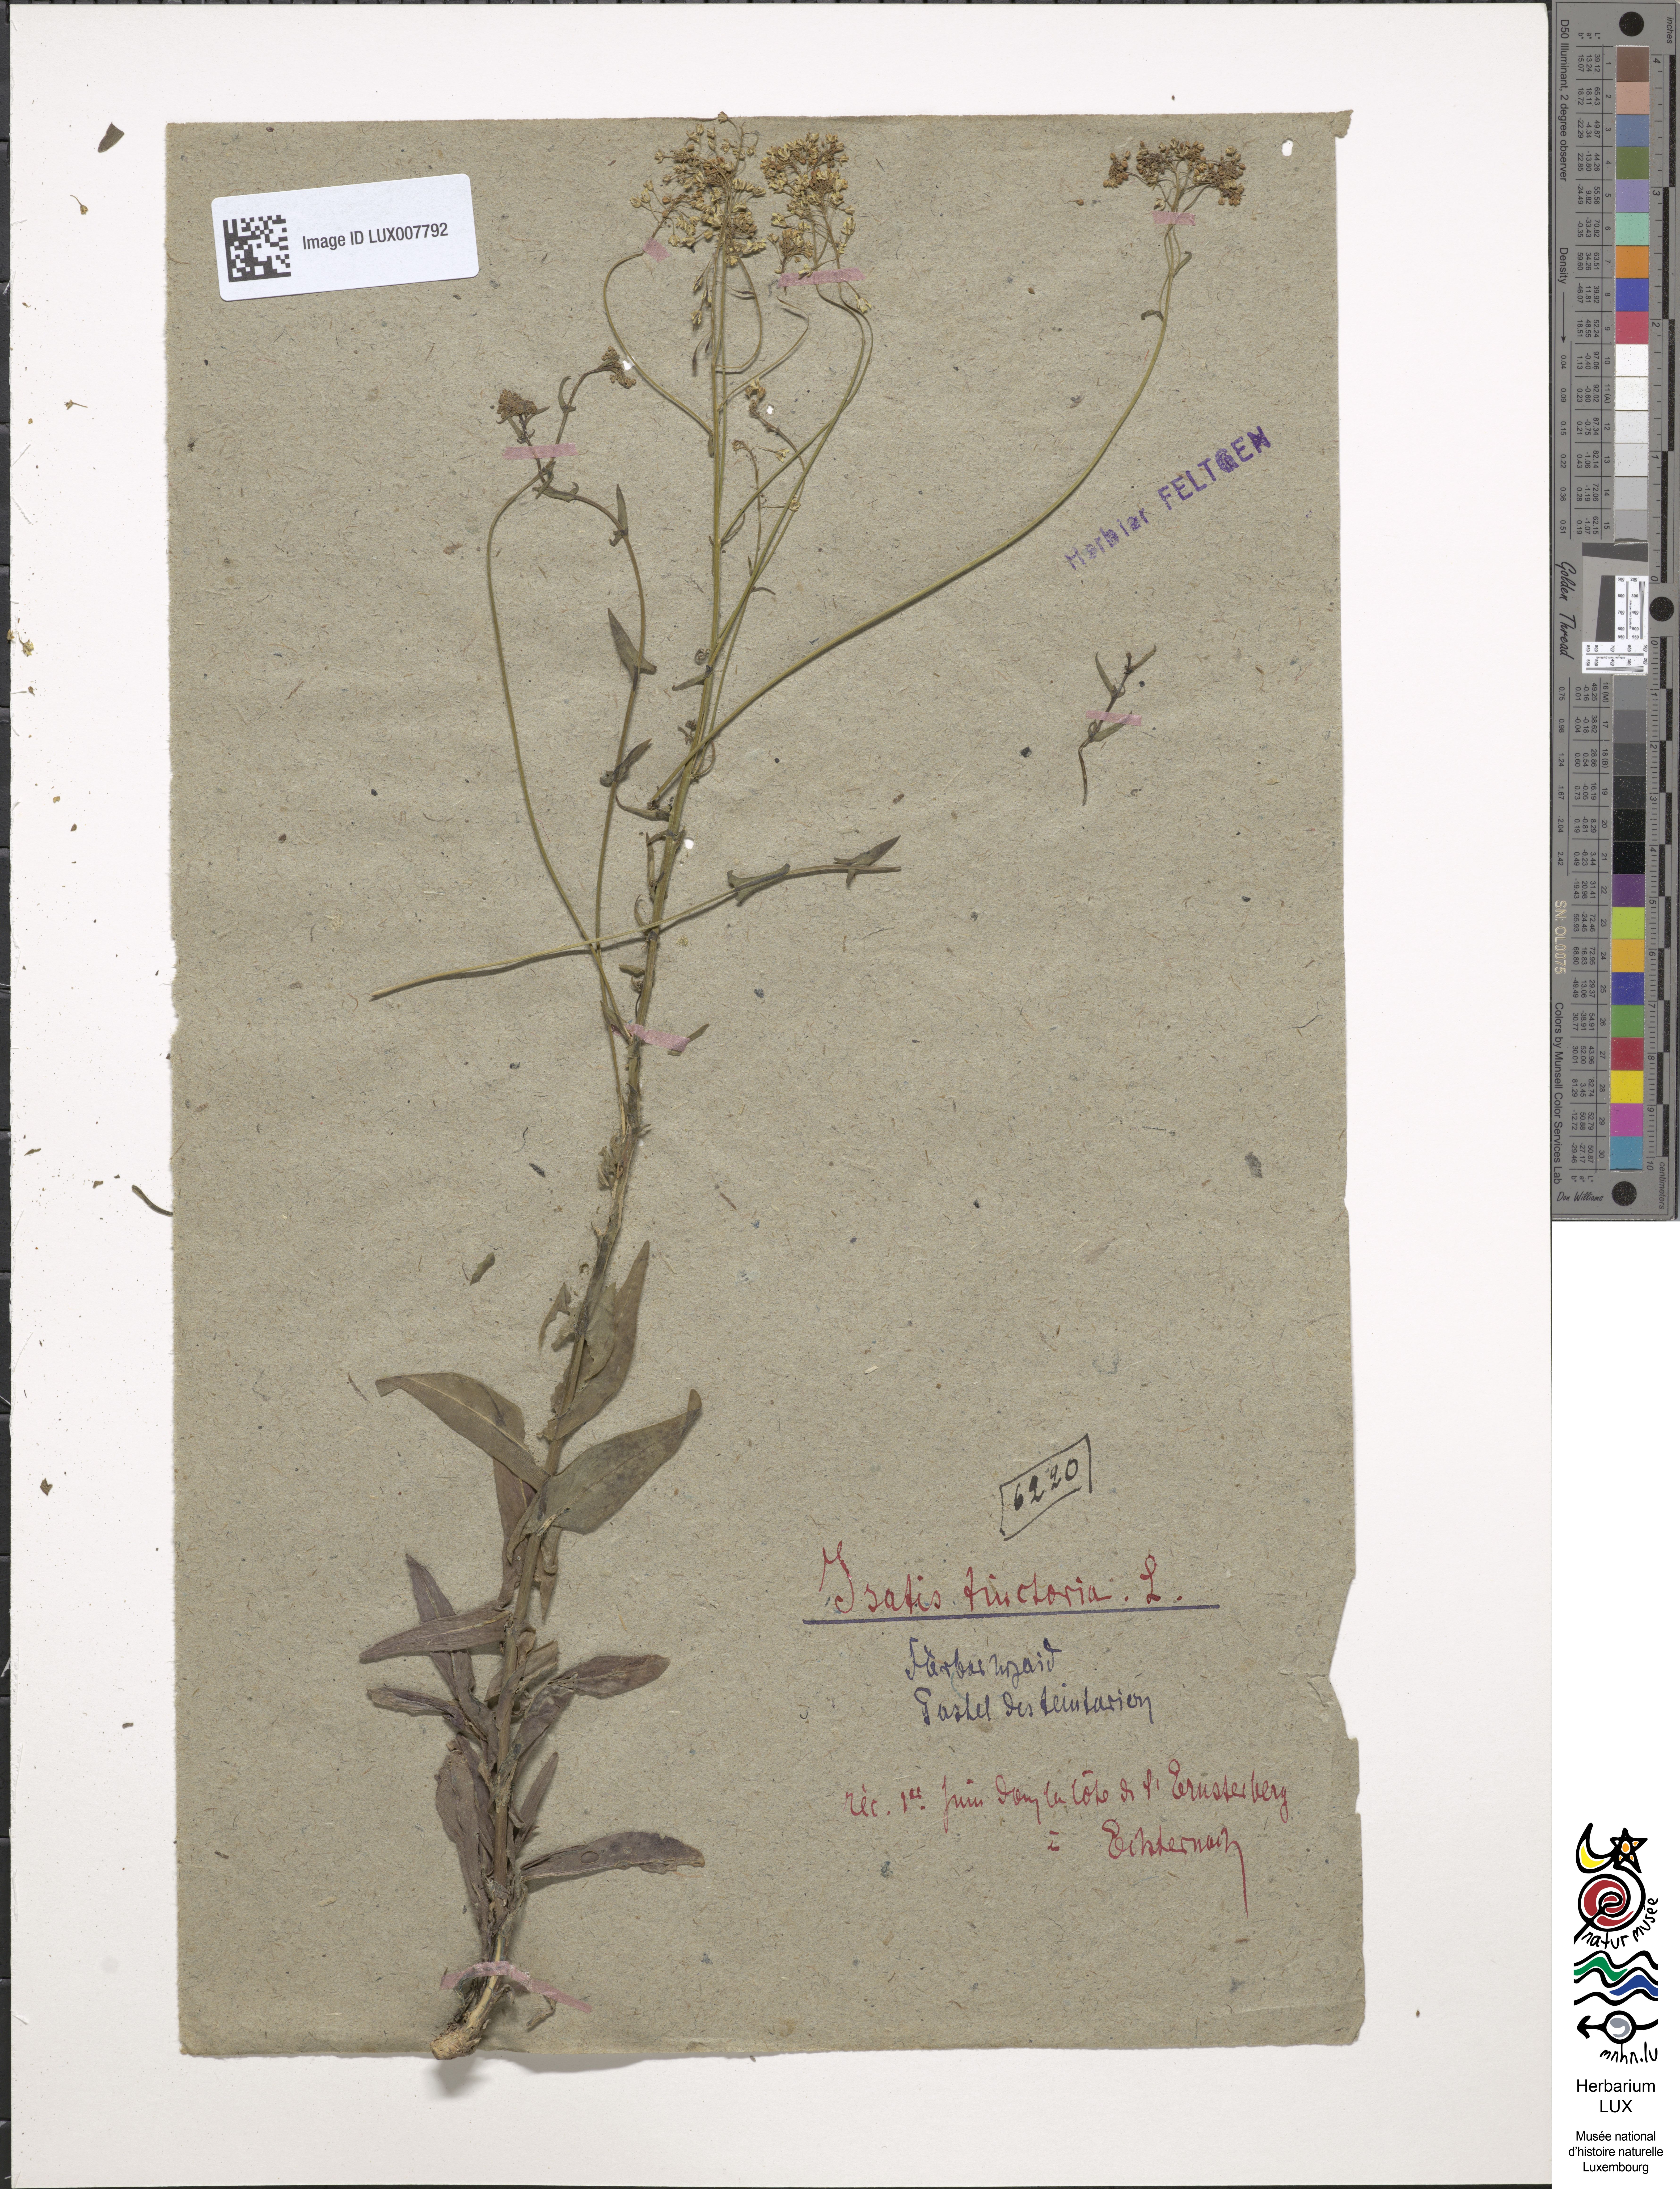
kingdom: Plantae
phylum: Tracheophyta
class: Magnoliopsida
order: Brassicales
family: Brassicaceae
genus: Isatis
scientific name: Isatis tinctoria
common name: Woad
